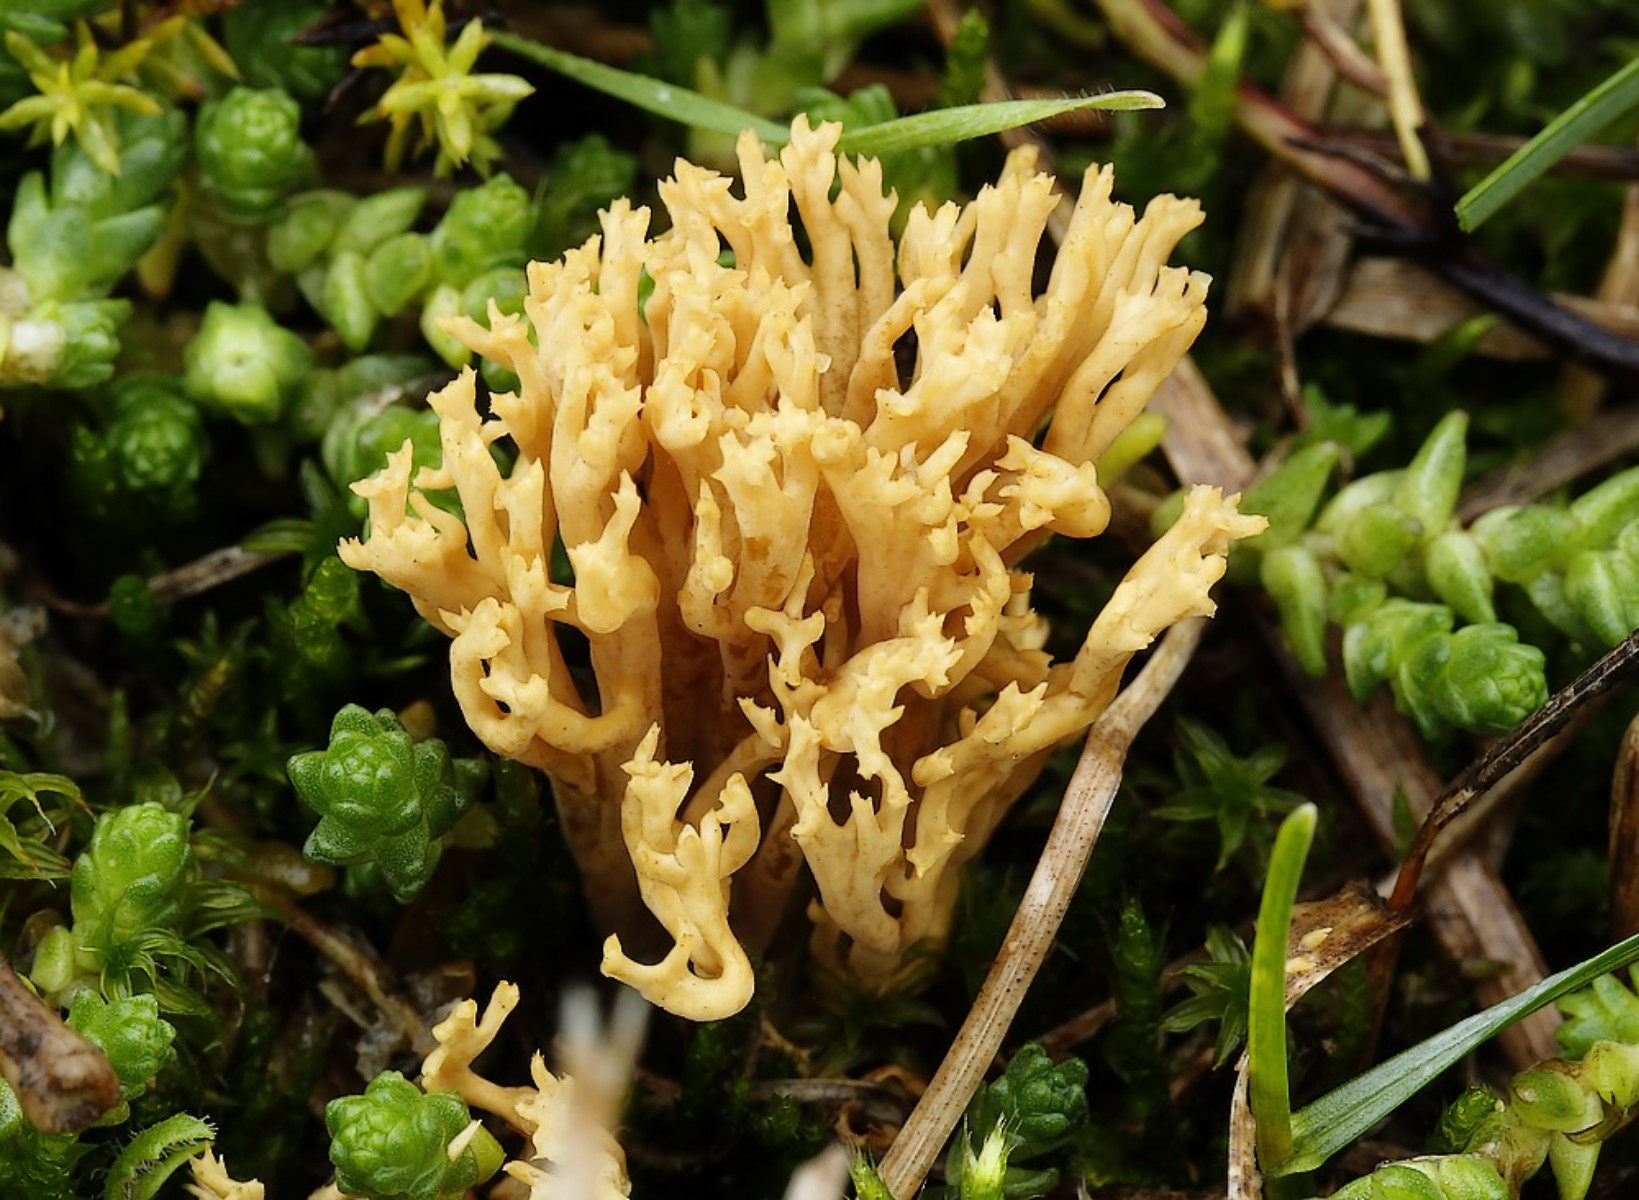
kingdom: Fungi
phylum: Basidiomycota
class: Agaricomycetes
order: Agaricales
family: Clavariaceae
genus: Clavulinopsis
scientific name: Clavulinopsis corniculata
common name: eng-køllesvamp
